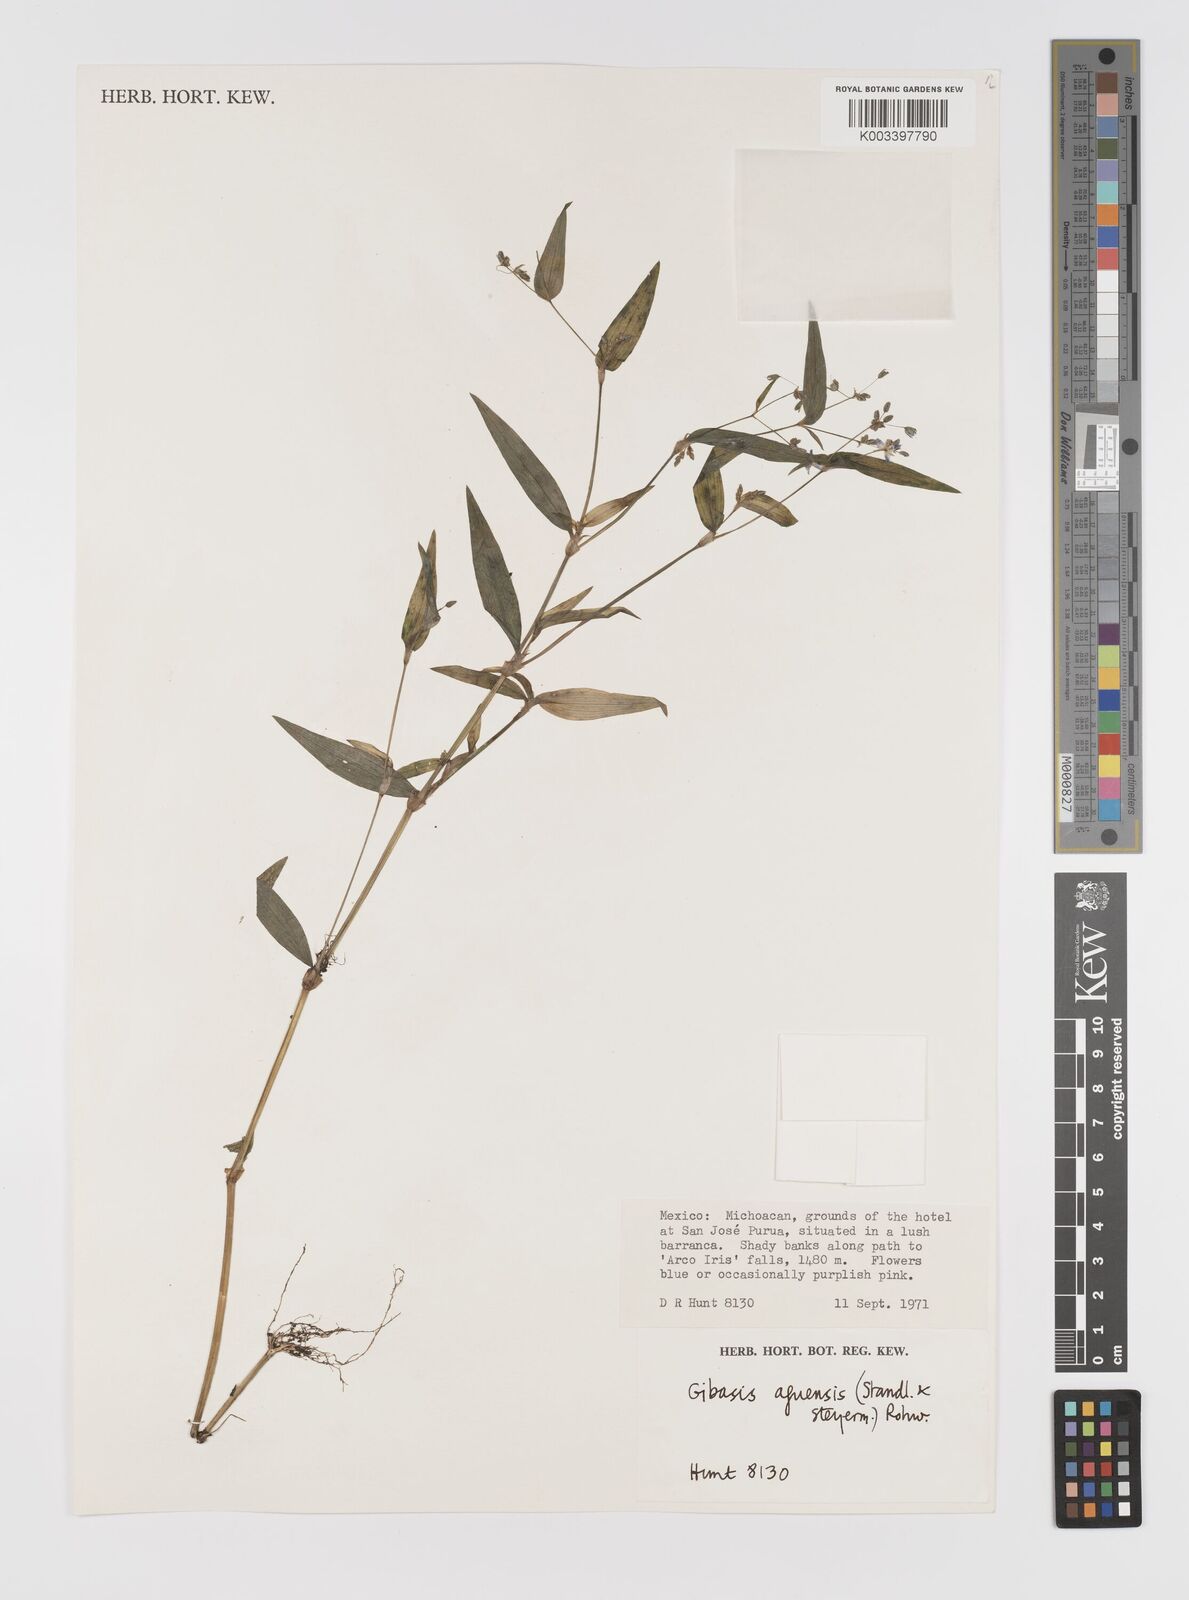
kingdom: Plantae
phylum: Tracheophyta
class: Liliopsida
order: Commelinales
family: Commelinaceae
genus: Gibasis
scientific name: Gibasis triflora
